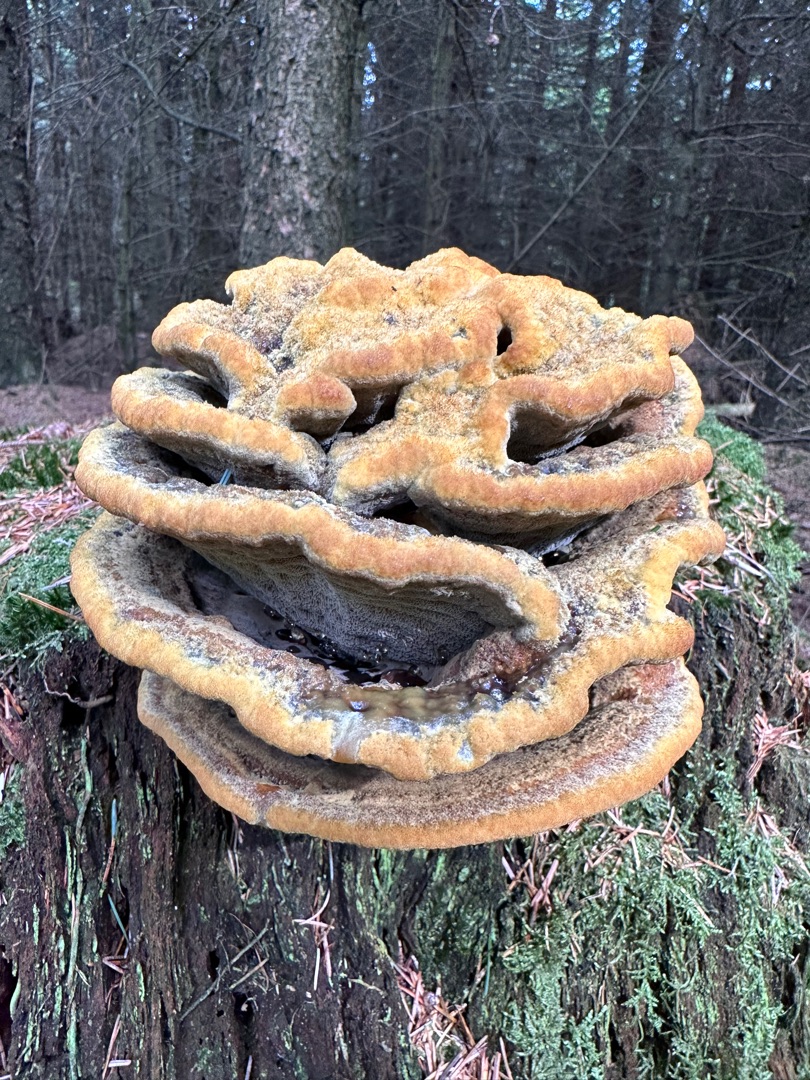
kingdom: Fungi
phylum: Basidiomycota
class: Agaricomycetes
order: Polyporales
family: Laetiporaceae
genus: Phaeolus
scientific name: Phaeolus schweinitzii
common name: Brunporesvamp
